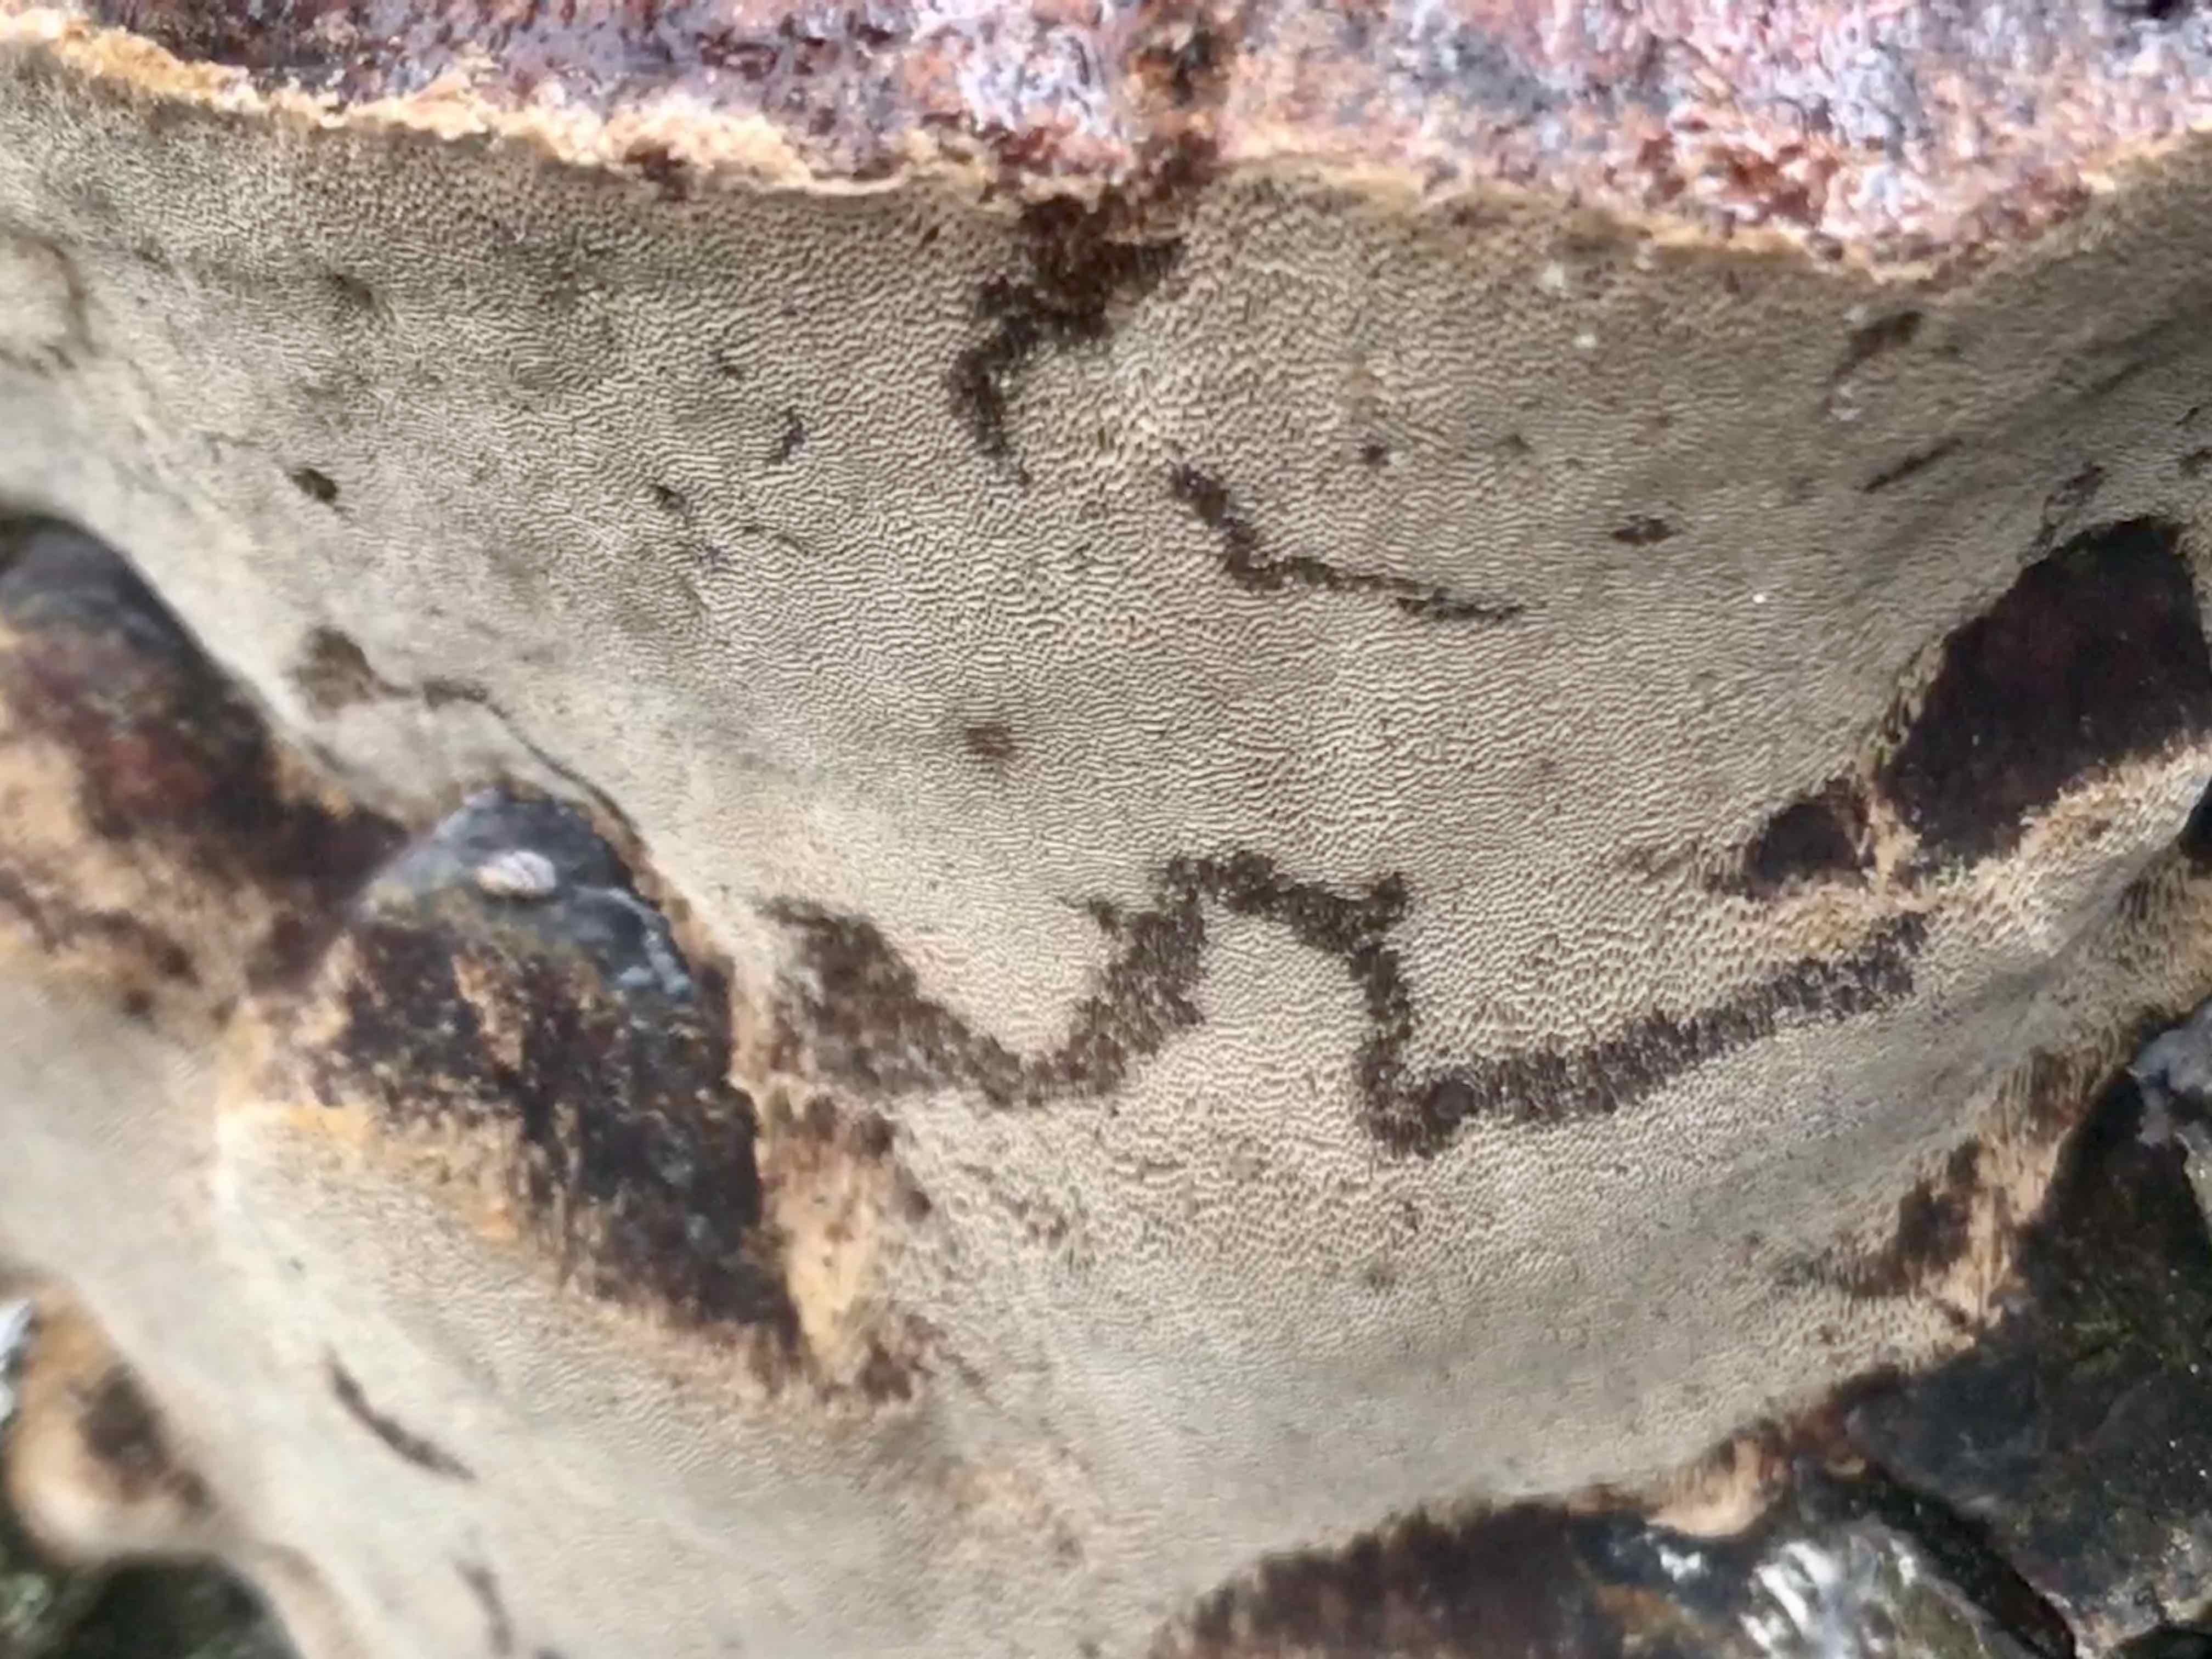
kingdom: Fungi
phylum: Basidiomycota
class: Agaricomycetes
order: Hymenochaetales
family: Hymenochaetaceae
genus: Phellinus
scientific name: Phellinus pomaceus
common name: blomme-ildporesvamp
